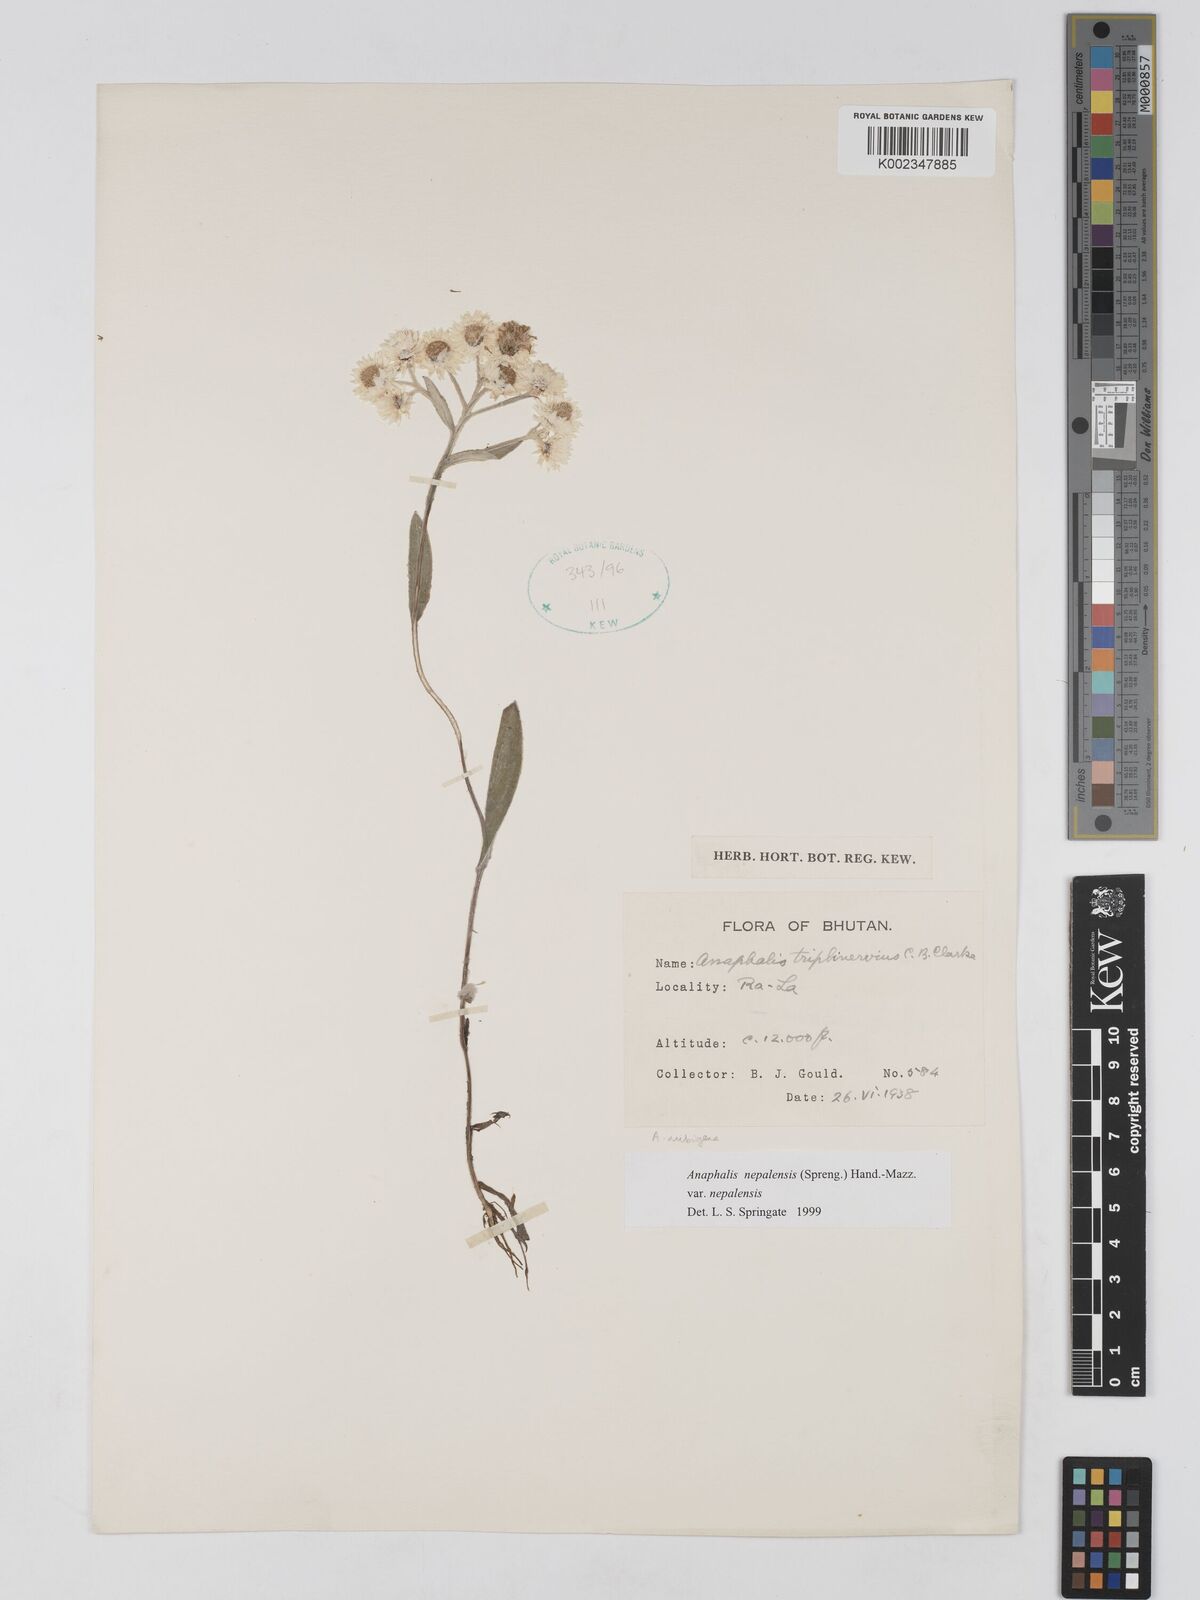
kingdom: Plantae
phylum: Tracheophyta
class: Magnoliopsida
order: Asterales
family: Asteraceae
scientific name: Asteraceae
